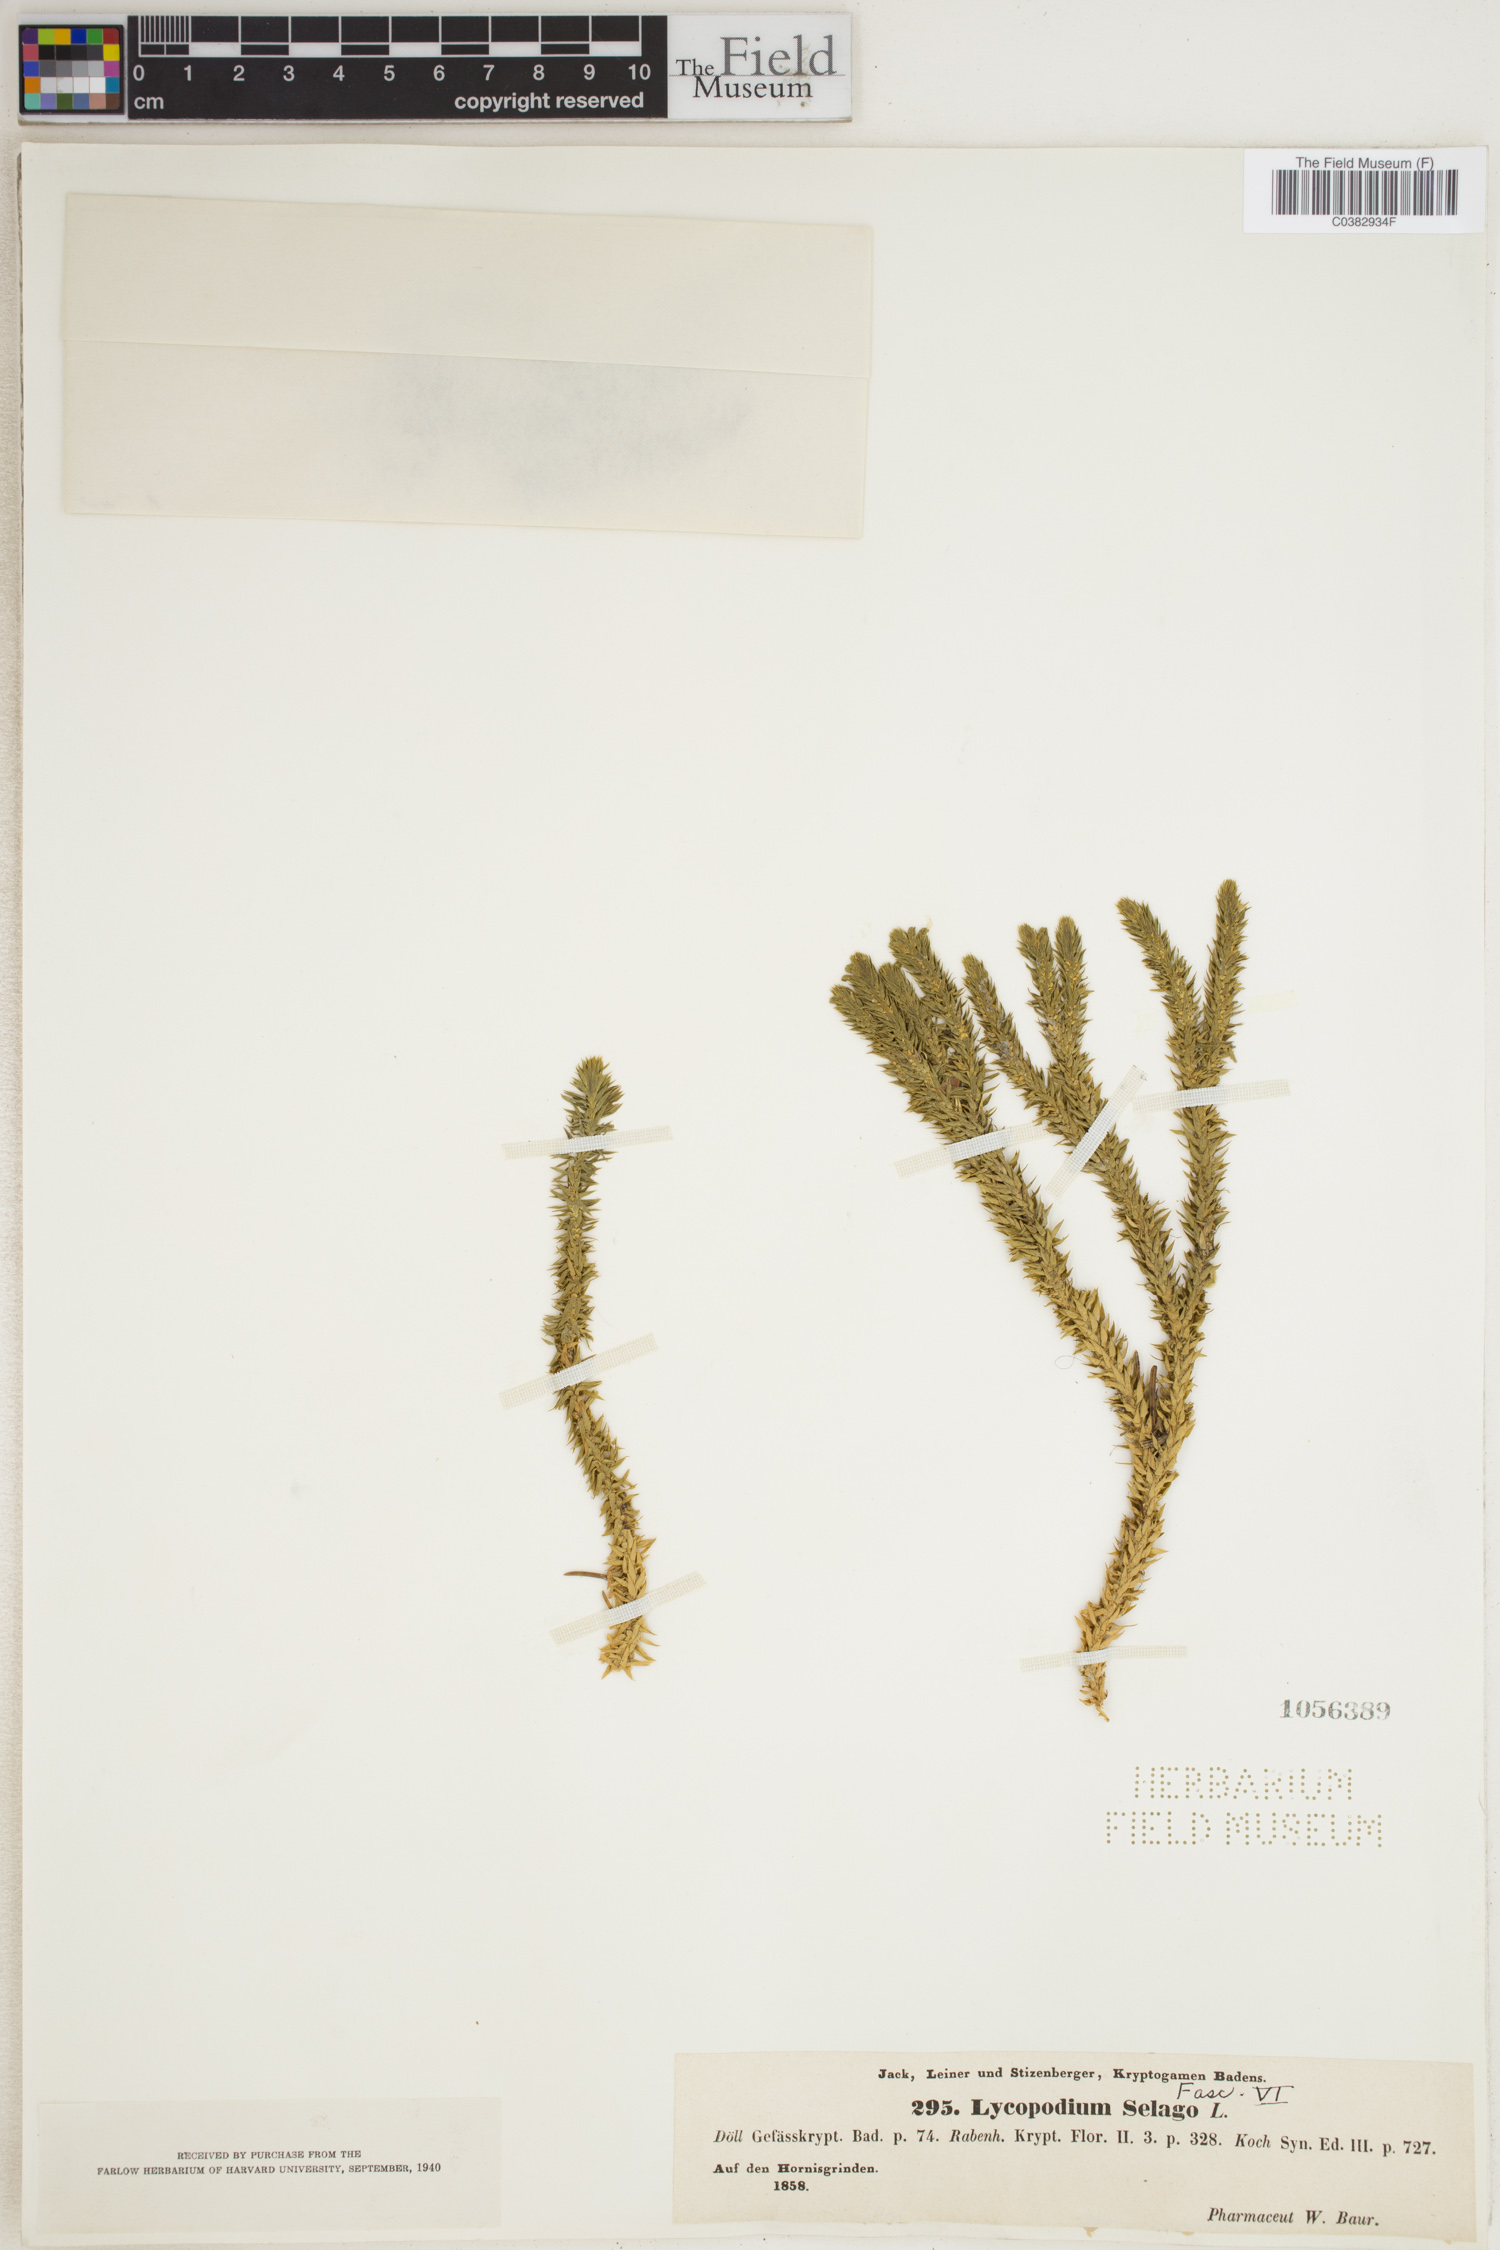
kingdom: Plantae
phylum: Tracheophyta
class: Lycopodiopsida
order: Lycopodiales
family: Lycopodiaceae
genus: Huperzia
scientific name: Huperzia selago
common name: Northern firmoss
